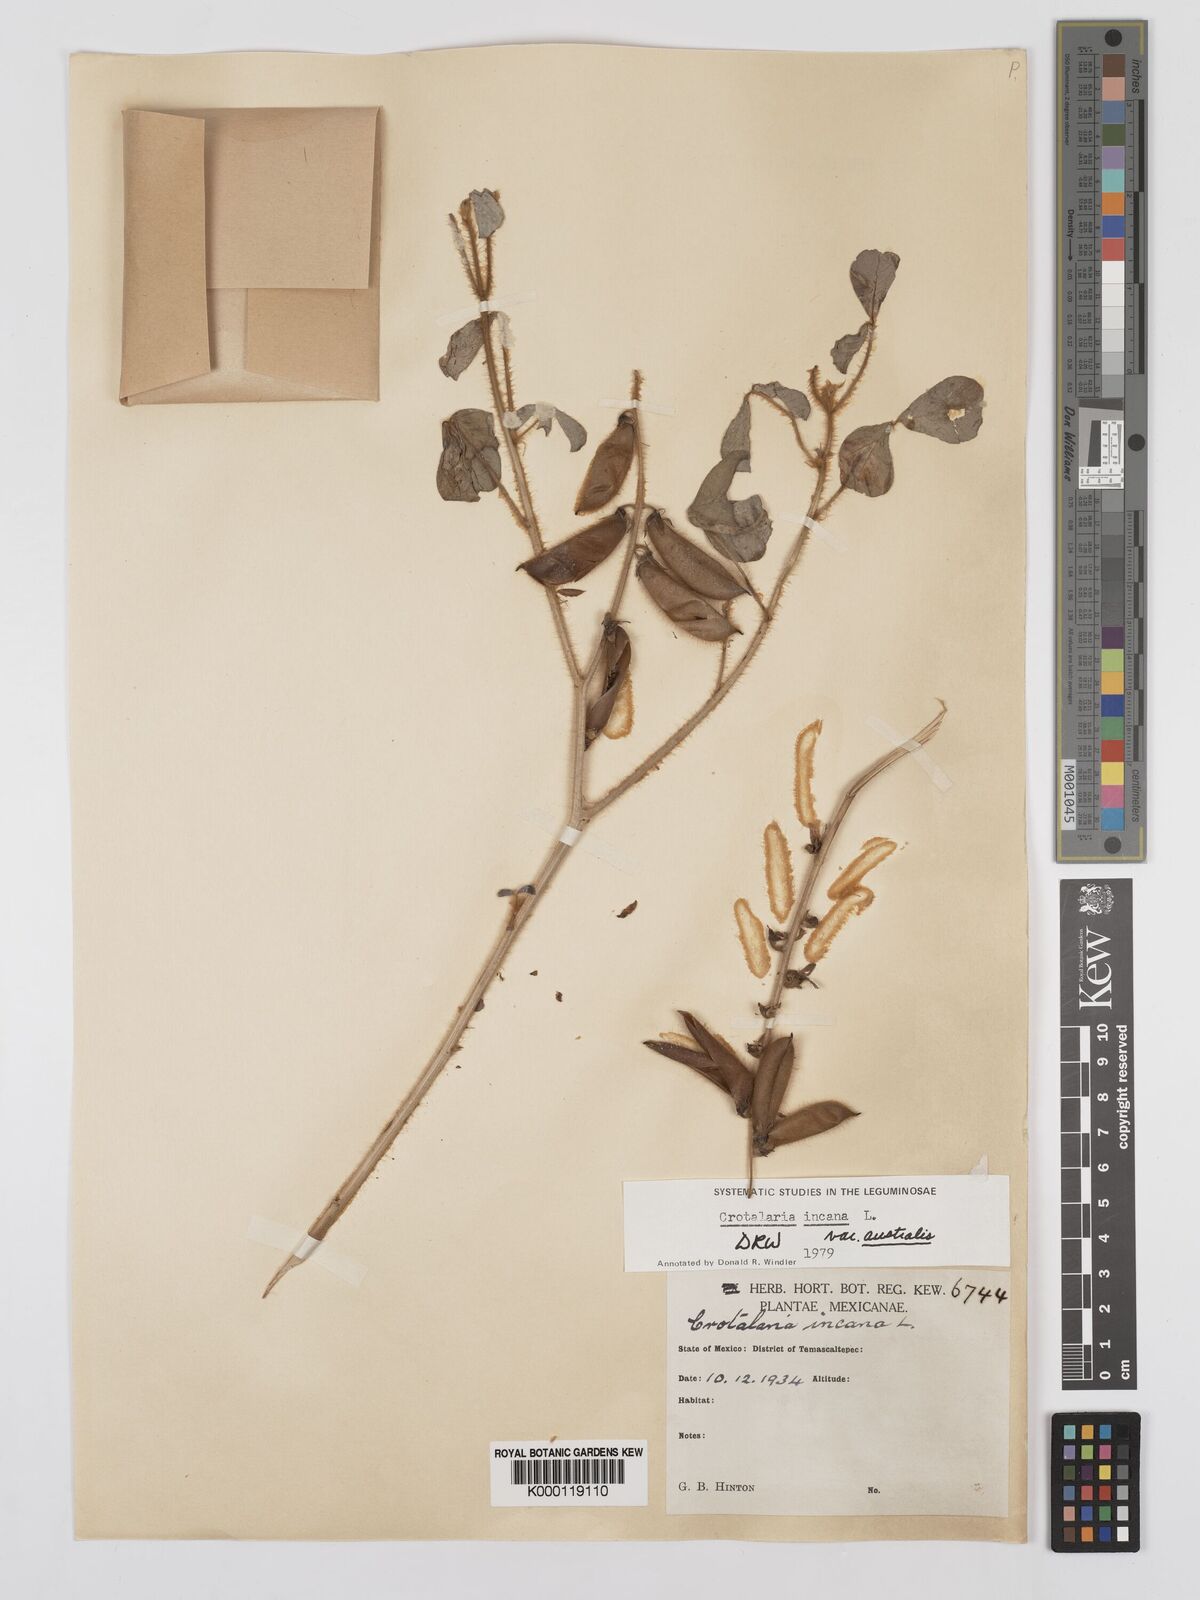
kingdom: Plantae
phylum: Tracheophyta
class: Magnoliopsida
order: Fabales
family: Fabaceae
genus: Crotalaria
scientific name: Crotalaria chaco-serranensis
